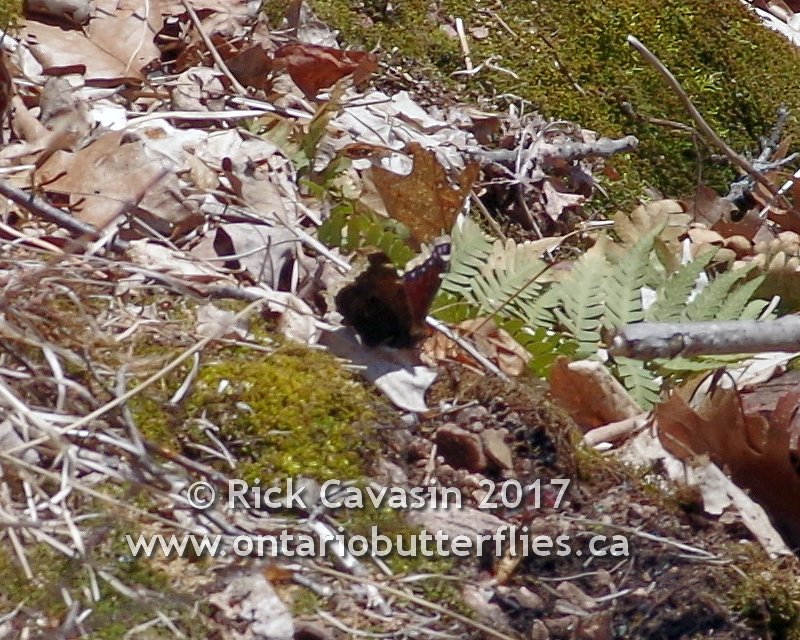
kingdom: Animalia
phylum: Arthropoda
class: Insecta
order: Lepidoptera
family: Nymphalidae
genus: Nymphalis
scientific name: Nymphalis antiopa
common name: Mourning Cloak
